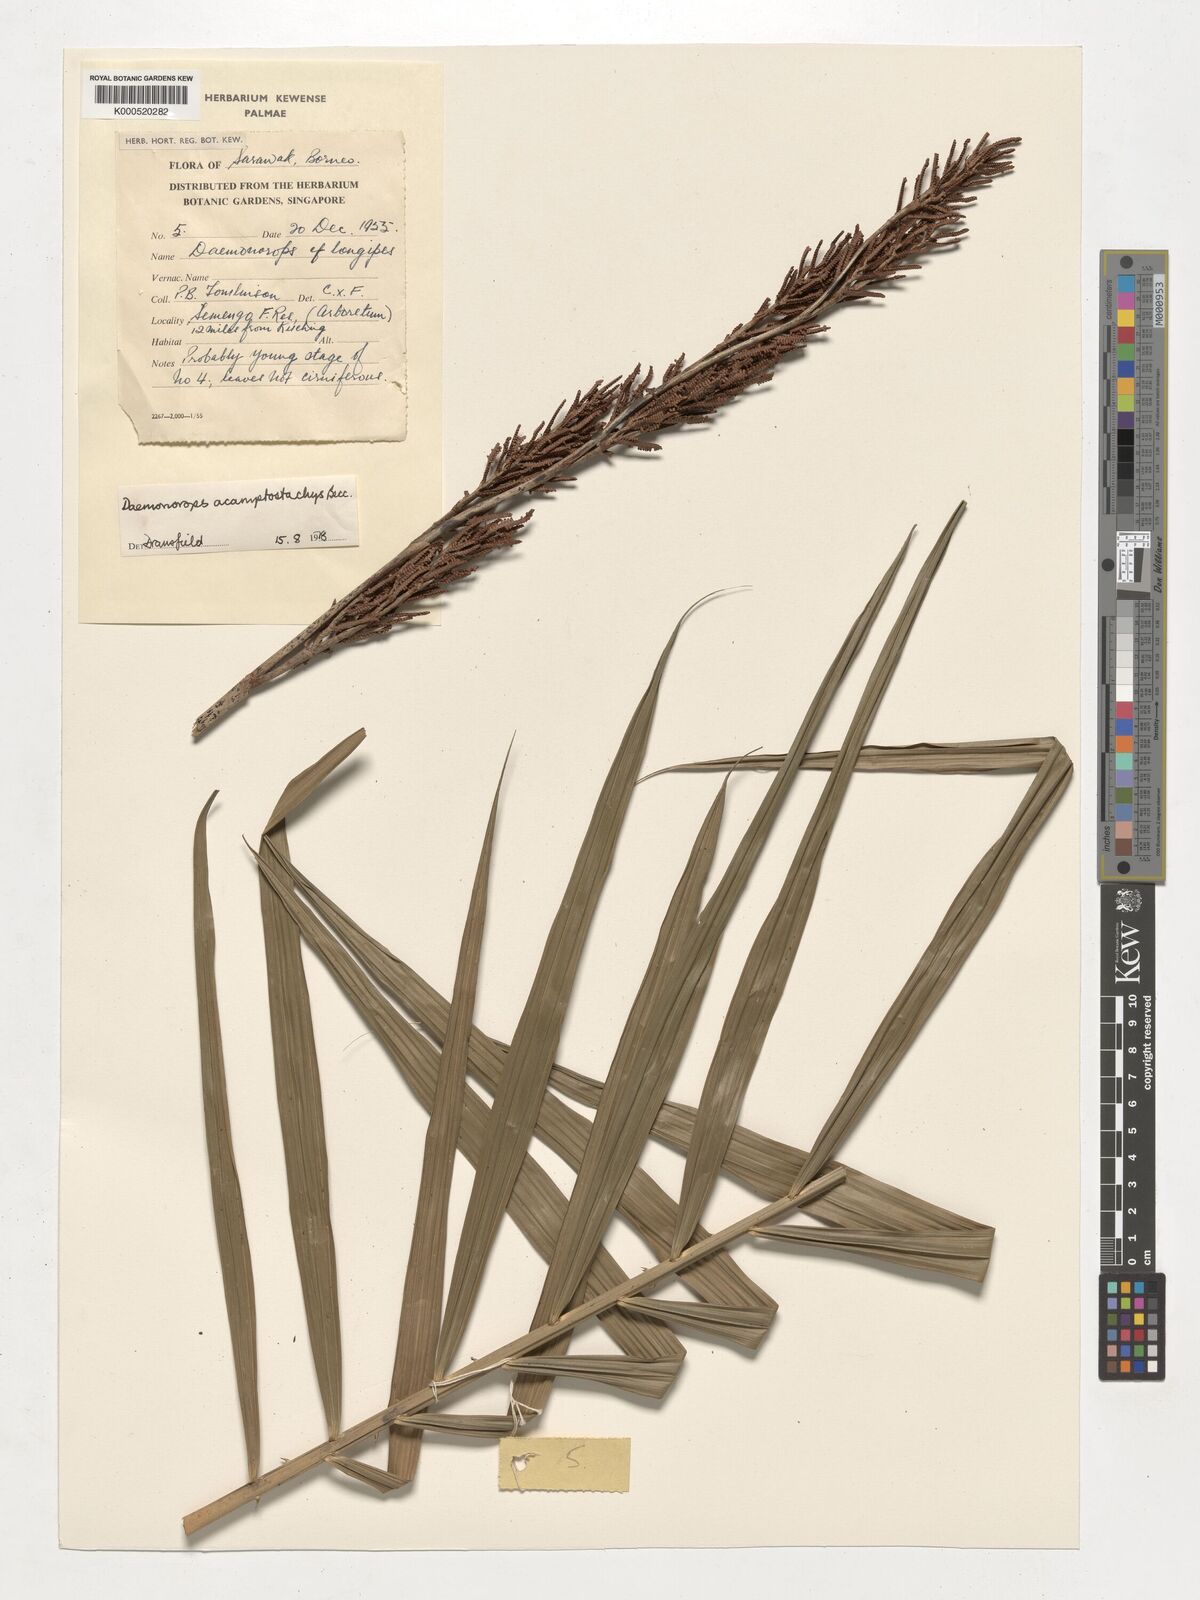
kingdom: Plantae
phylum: Tracheophyta
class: Liliopsida
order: Arecales
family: Arecaceae
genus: Calamus
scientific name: Calamus acamptostachys
